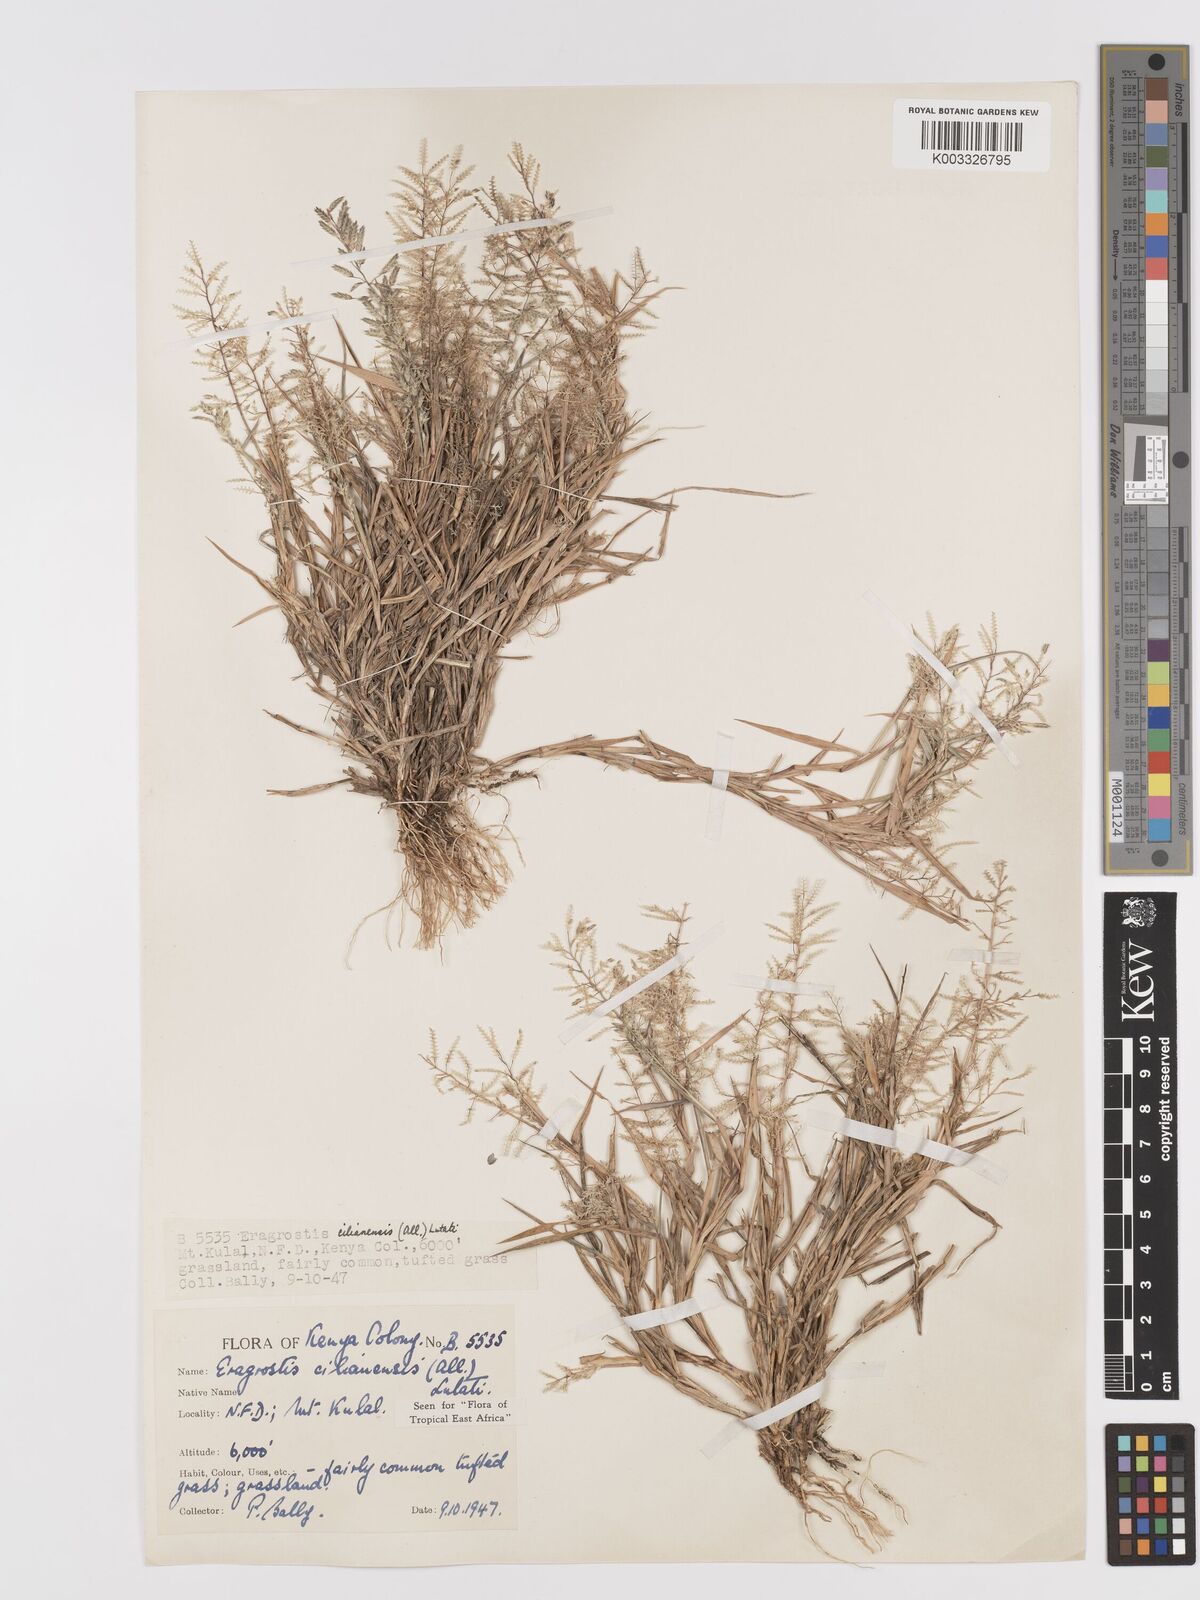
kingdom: Plantae
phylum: Tracheophyta
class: Liliopsida
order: Poales
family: Poaceae
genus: Eragrostis
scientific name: Eragrostis cilianensis
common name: Stinkgrass
